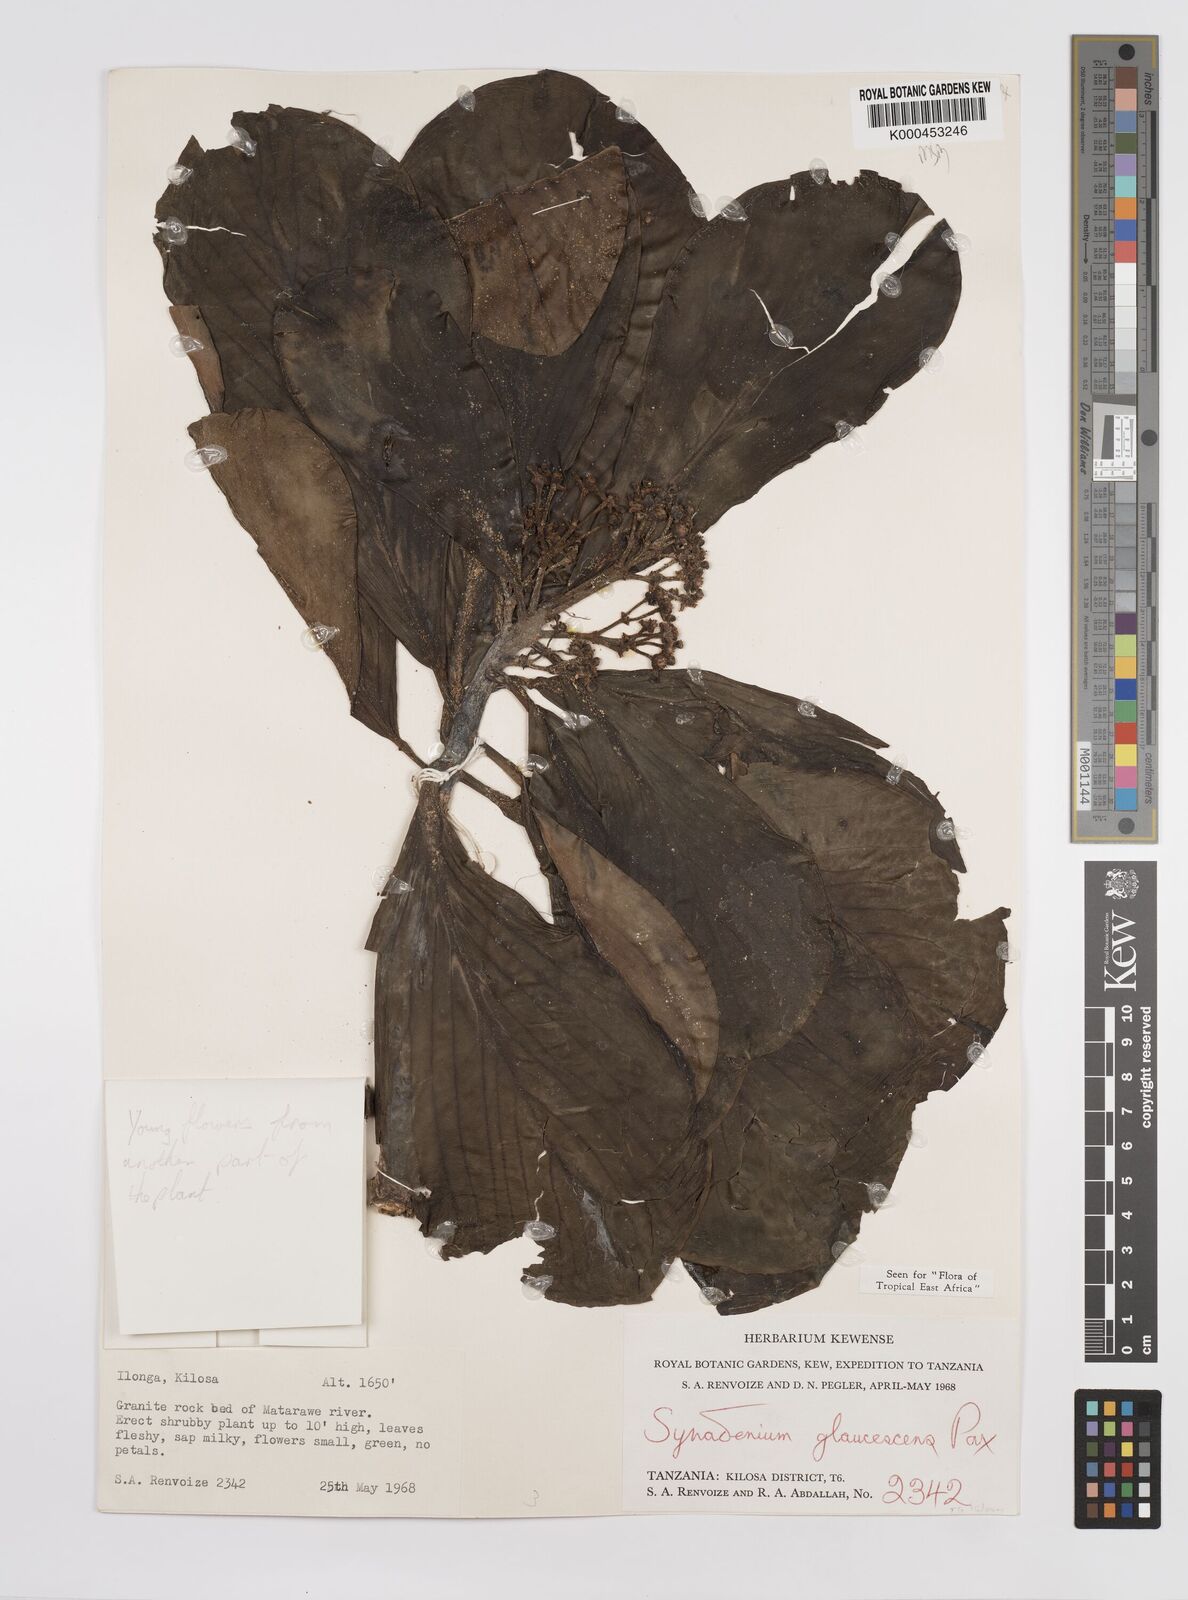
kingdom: Plantae
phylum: Tracheophyta
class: Magnoliopsida
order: Malpighiales
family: Euphorbiaceae
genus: Euphorbia
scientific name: Euphorbia neoglaucescens
